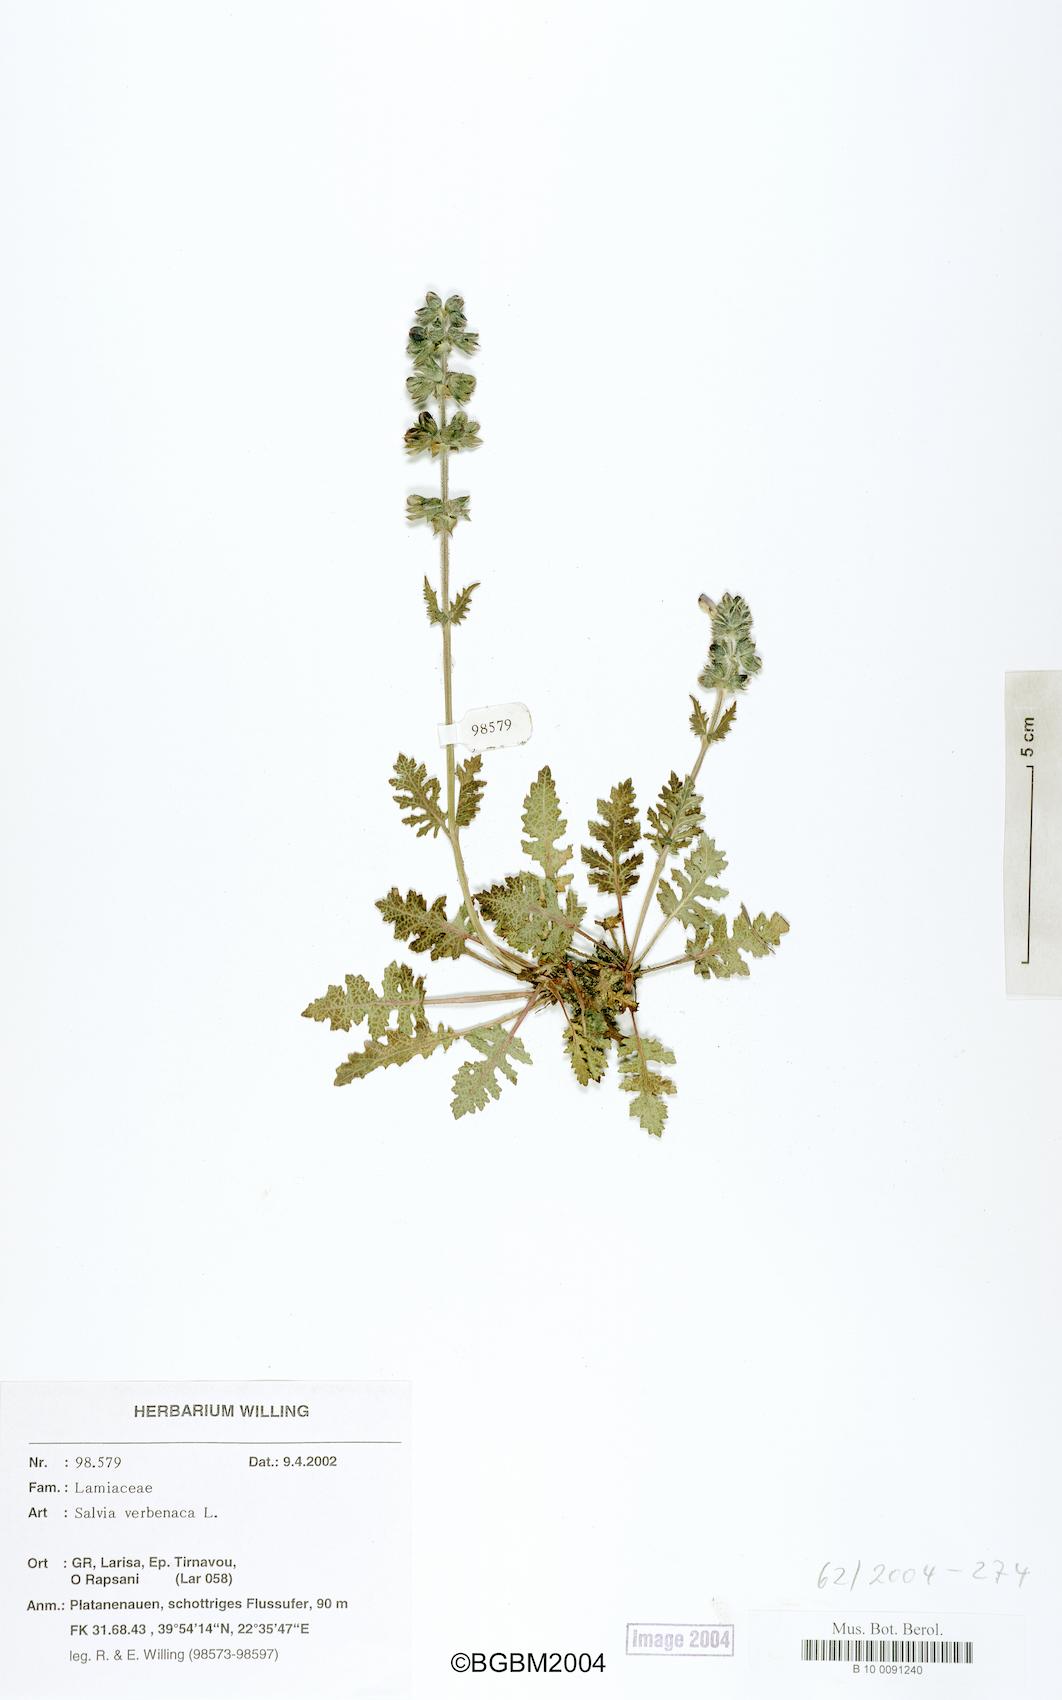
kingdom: Plantae
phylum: Tracheophyta
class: Magnoliopsida
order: Lamiales
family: Lamiaceae
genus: Salvia
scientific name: Salvia verbenaca
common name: Wild clary
